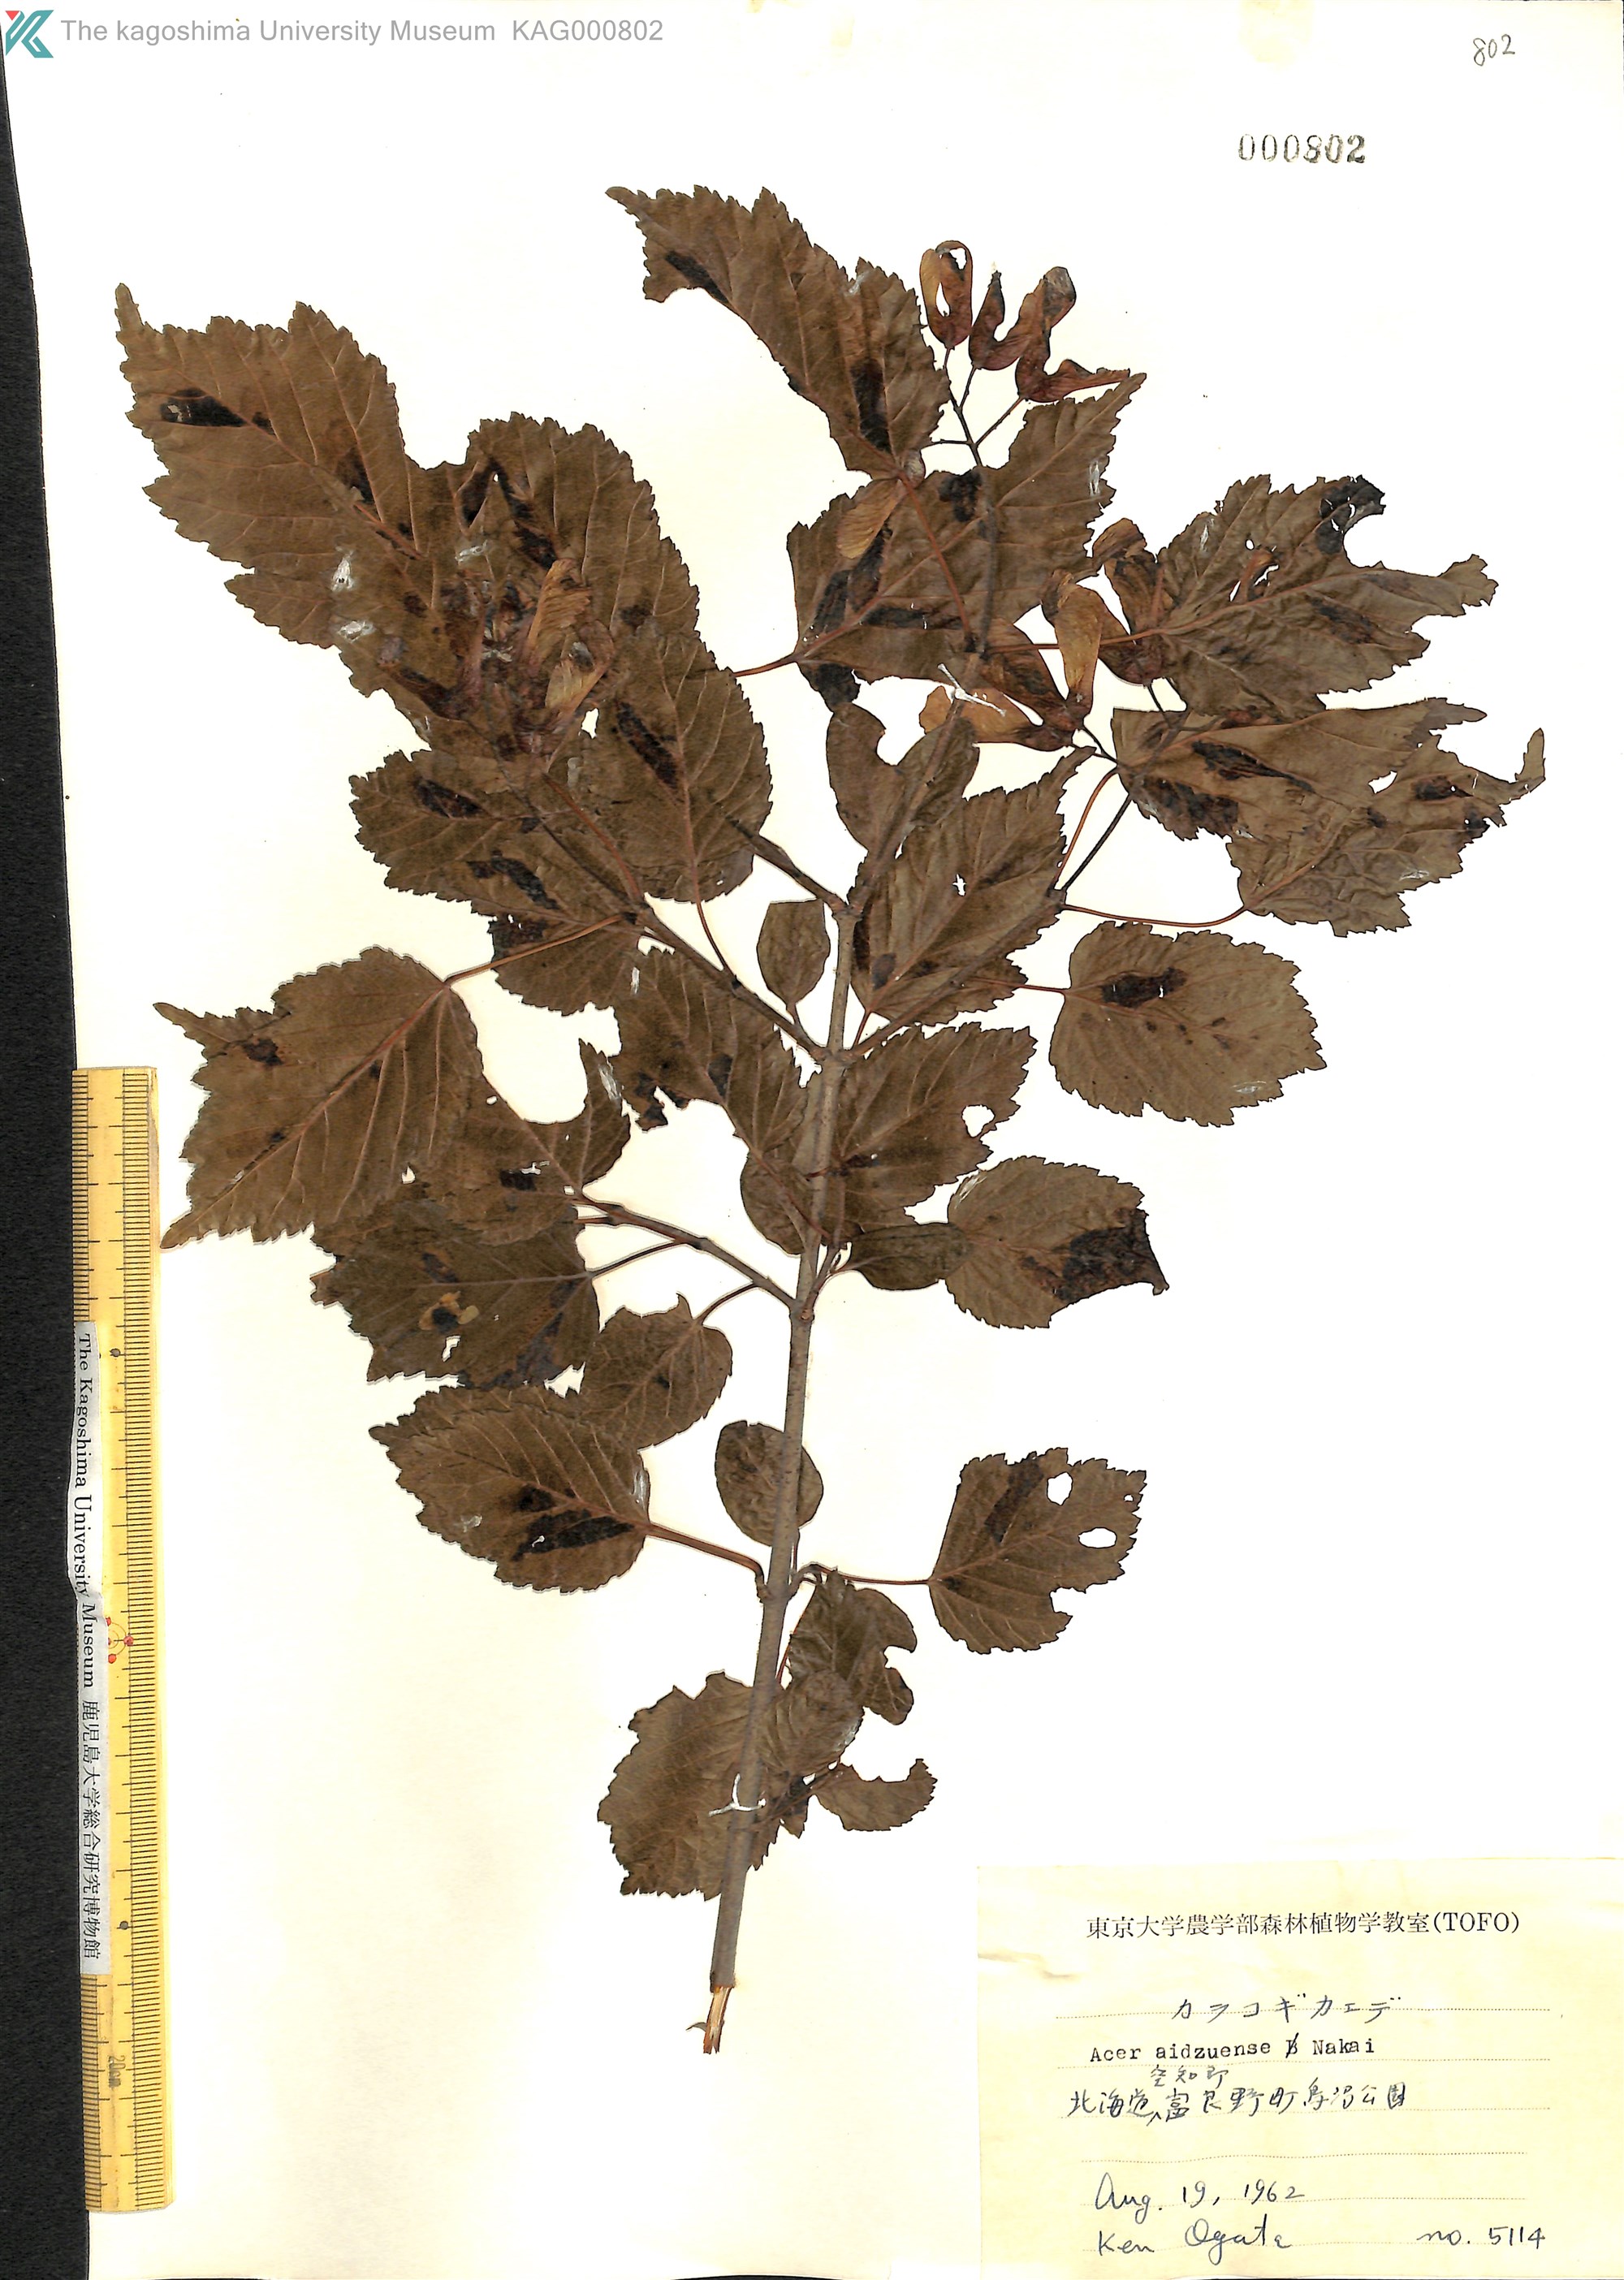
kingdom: Plantae
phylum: Tracheophyta
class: Magnoliopsida
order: Sapindales
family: Sapindaceae
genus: Acer
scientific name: Acer tataricum
